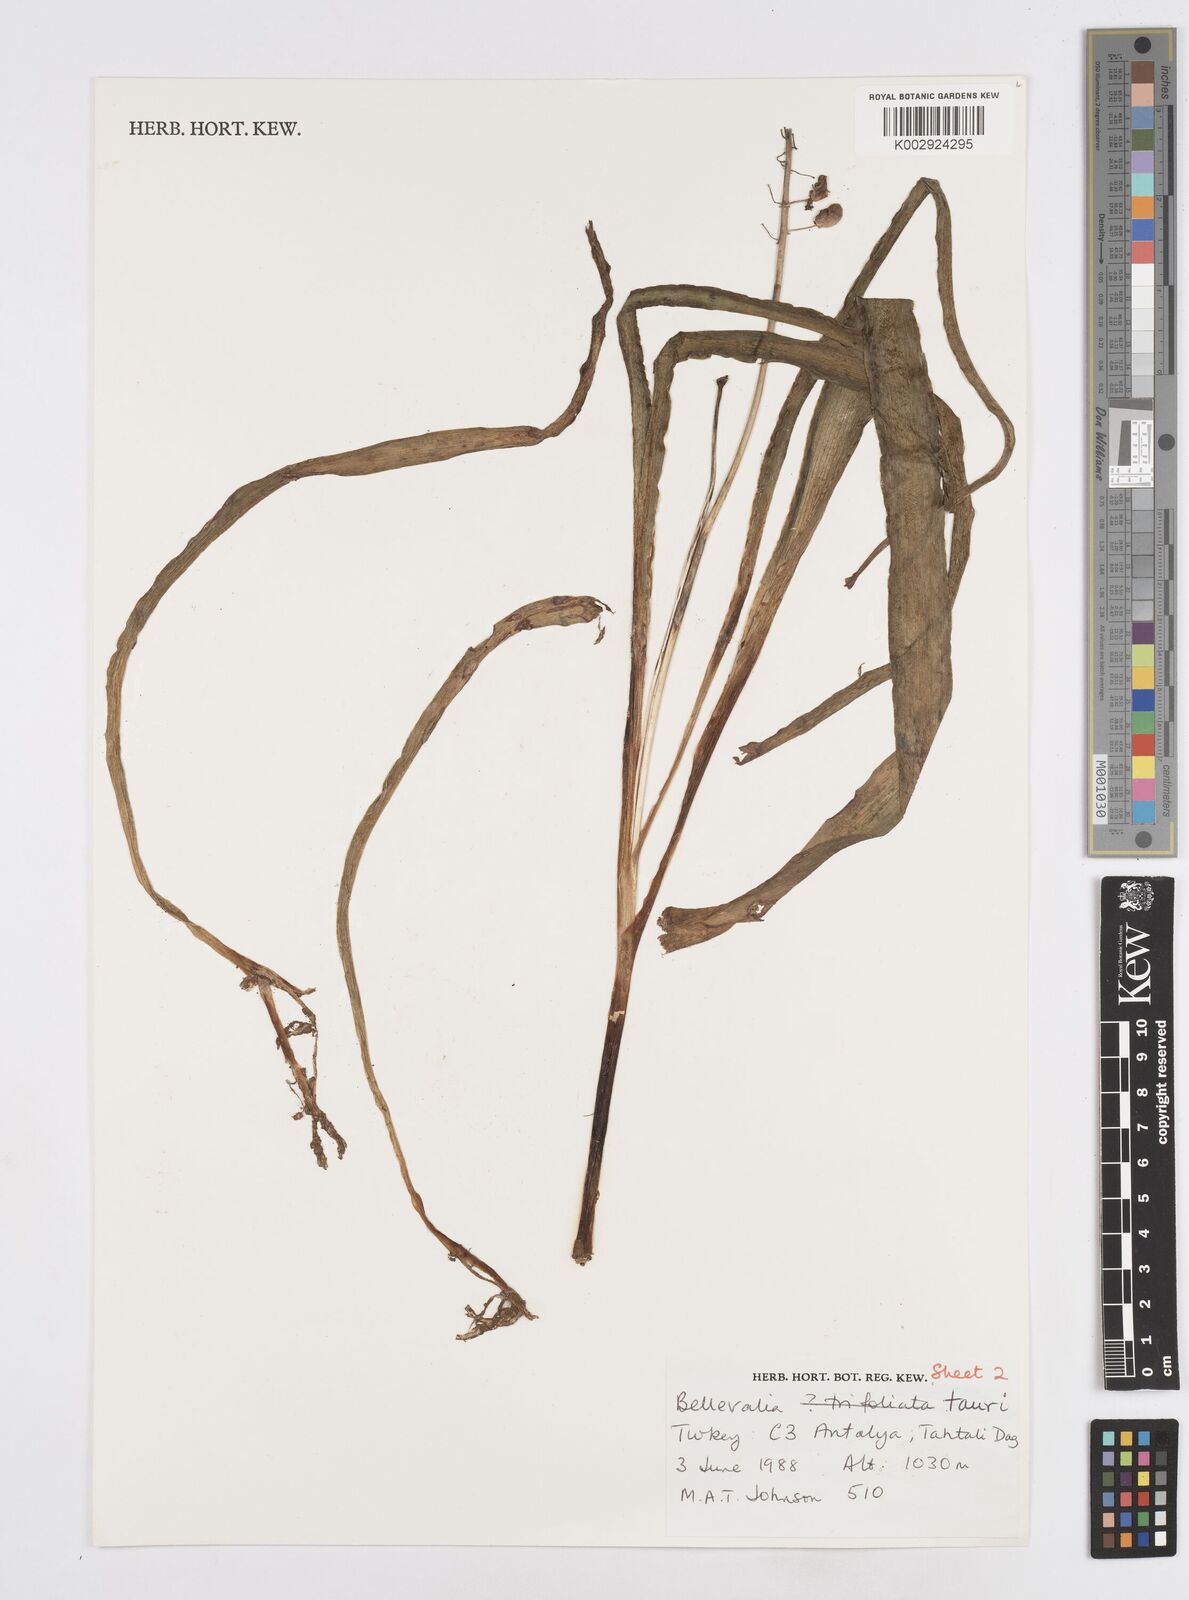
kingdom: Plantae
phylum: Tracheophyta
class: Liliopsida
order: Asparagales
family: Asparagaceae
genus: Bellevalia
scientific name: Bellevalia tauri
